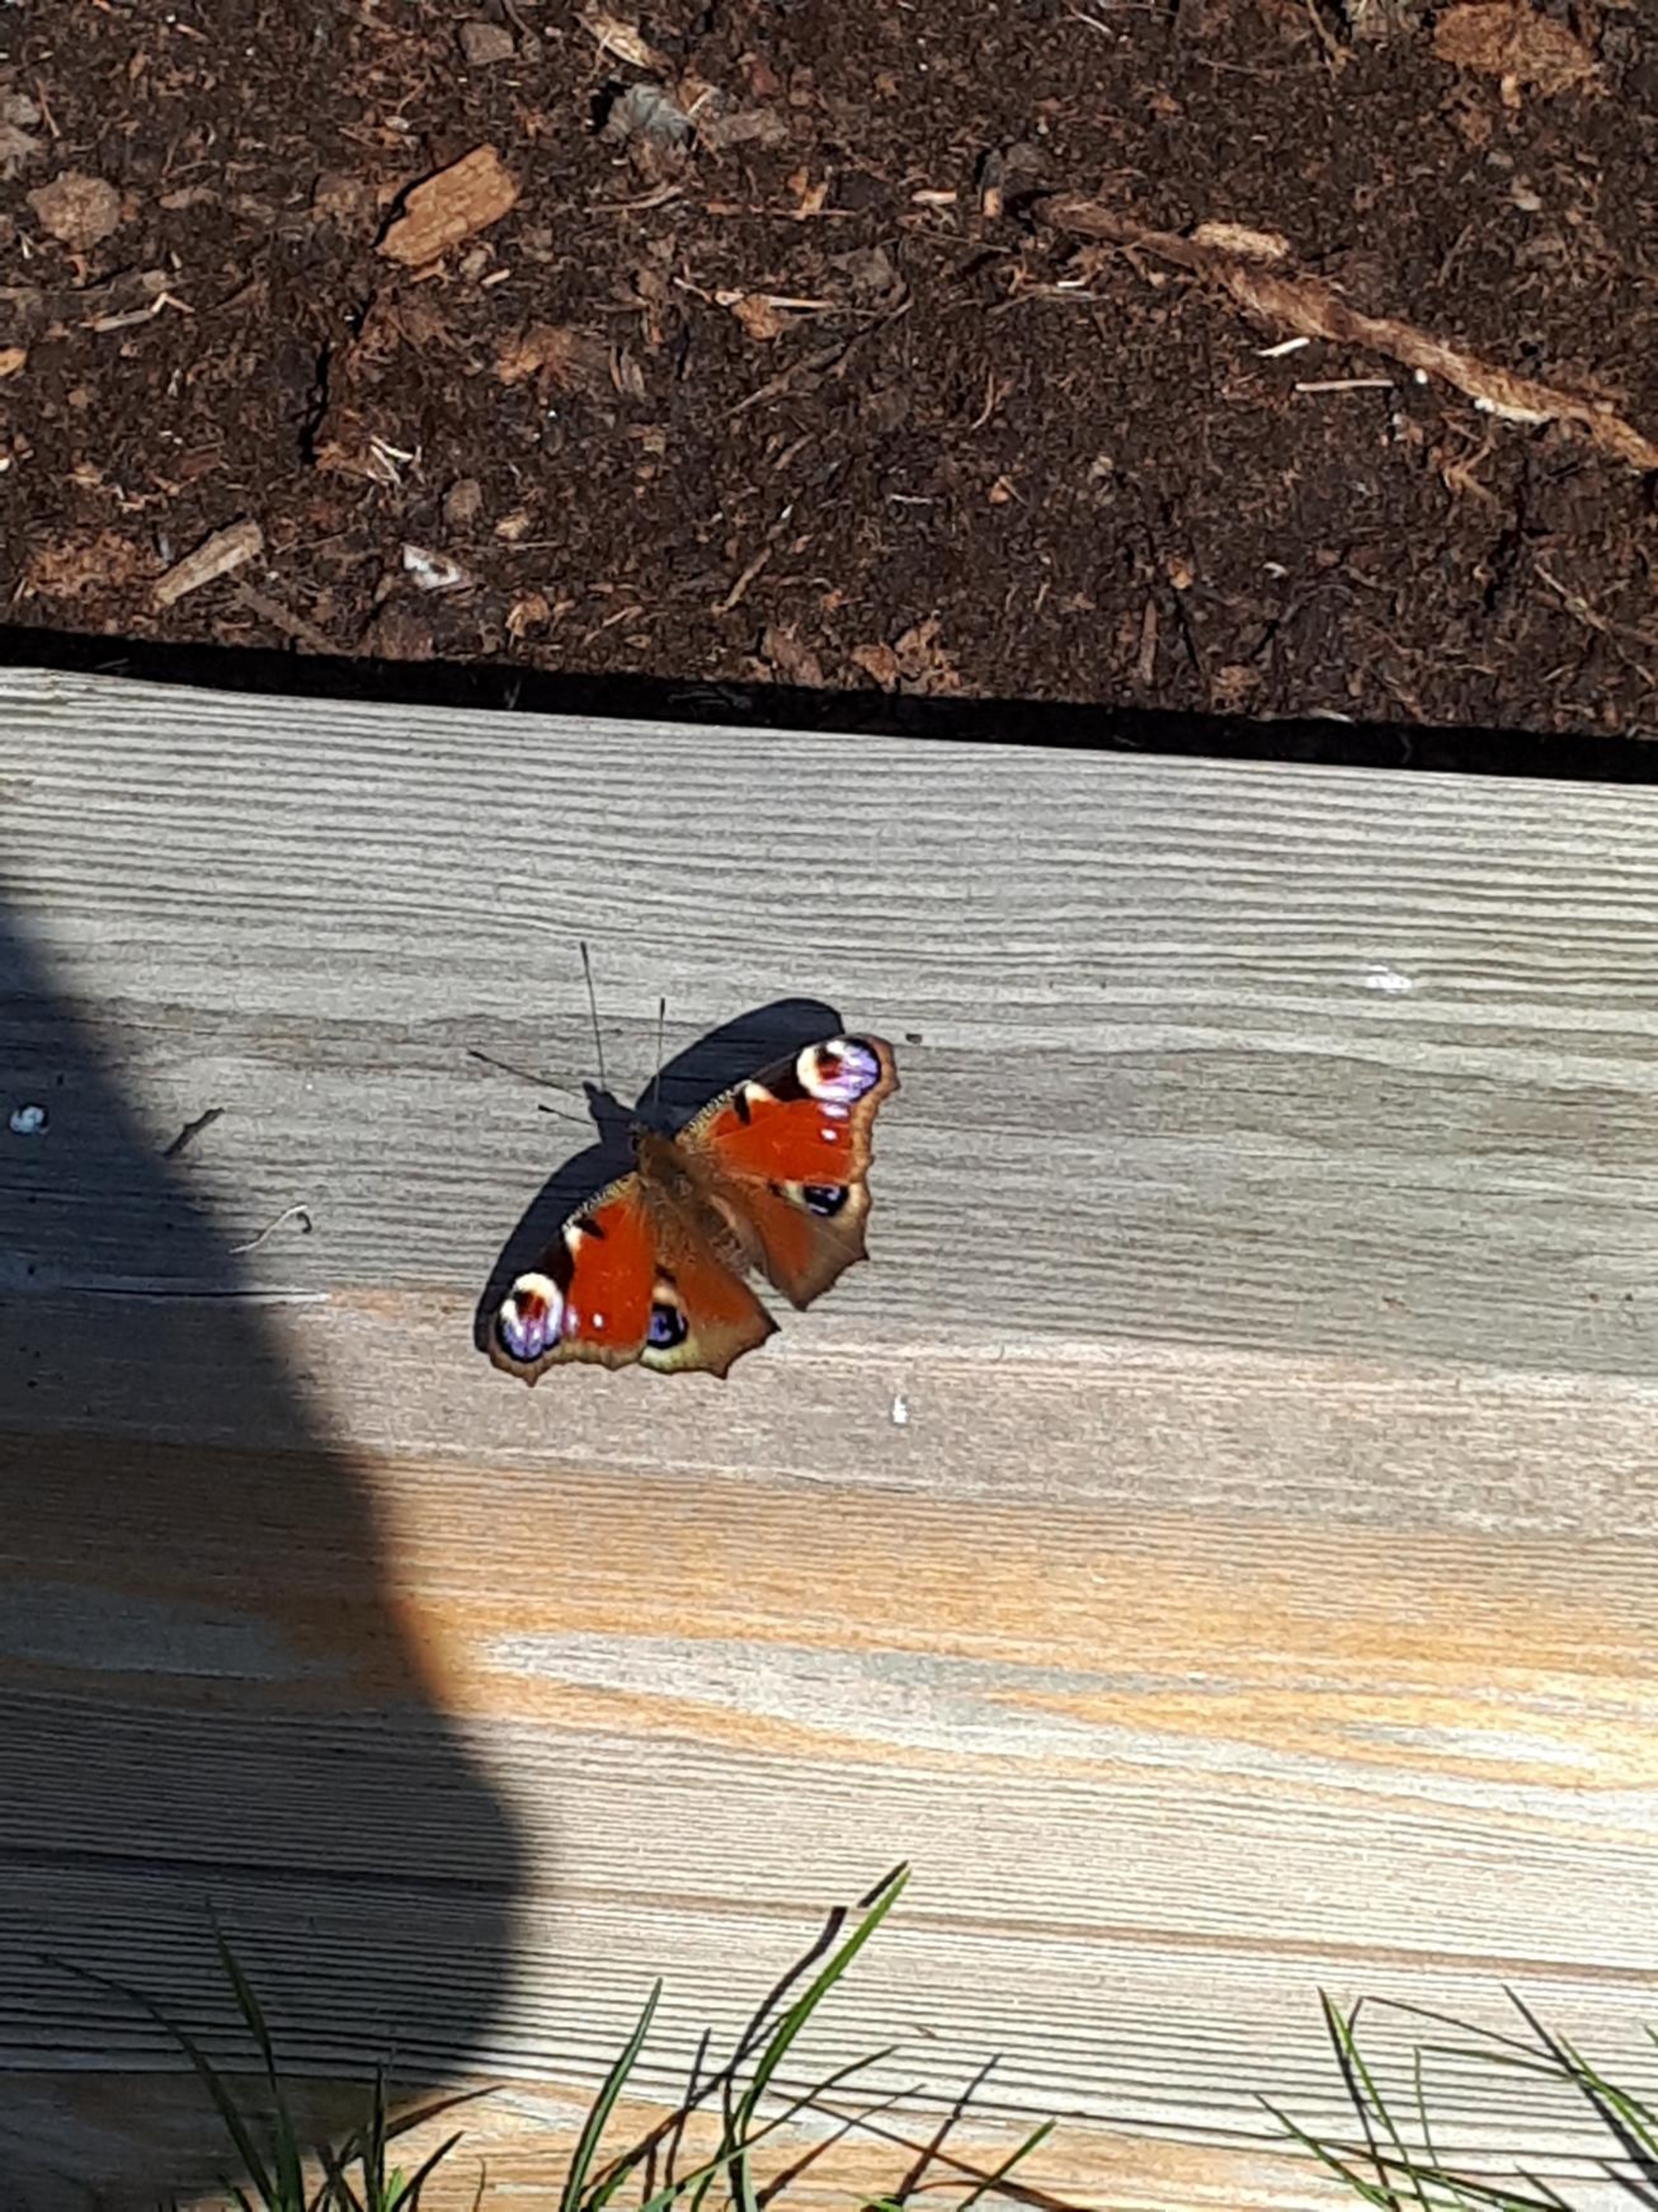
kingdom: Animalia
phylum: Arthropoda
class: Insecta
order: Lepidoptera
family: Nymphalidae
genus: Aglais
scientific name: Aglais io
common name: Dagpåfugleøje
